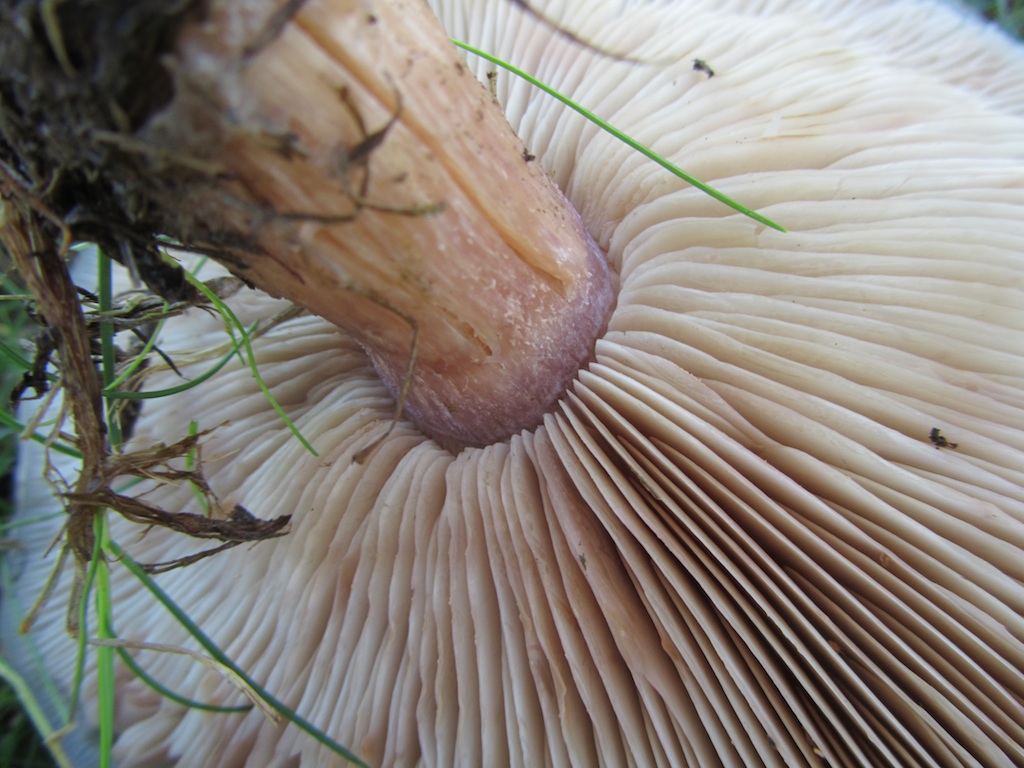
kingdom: Fungi
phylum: Basidiomycota
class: Agaricomycetes
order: Agaricales
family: Tricholomataceae
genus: Lepista
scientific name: Lepista personata
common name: bleg hekseringshat
